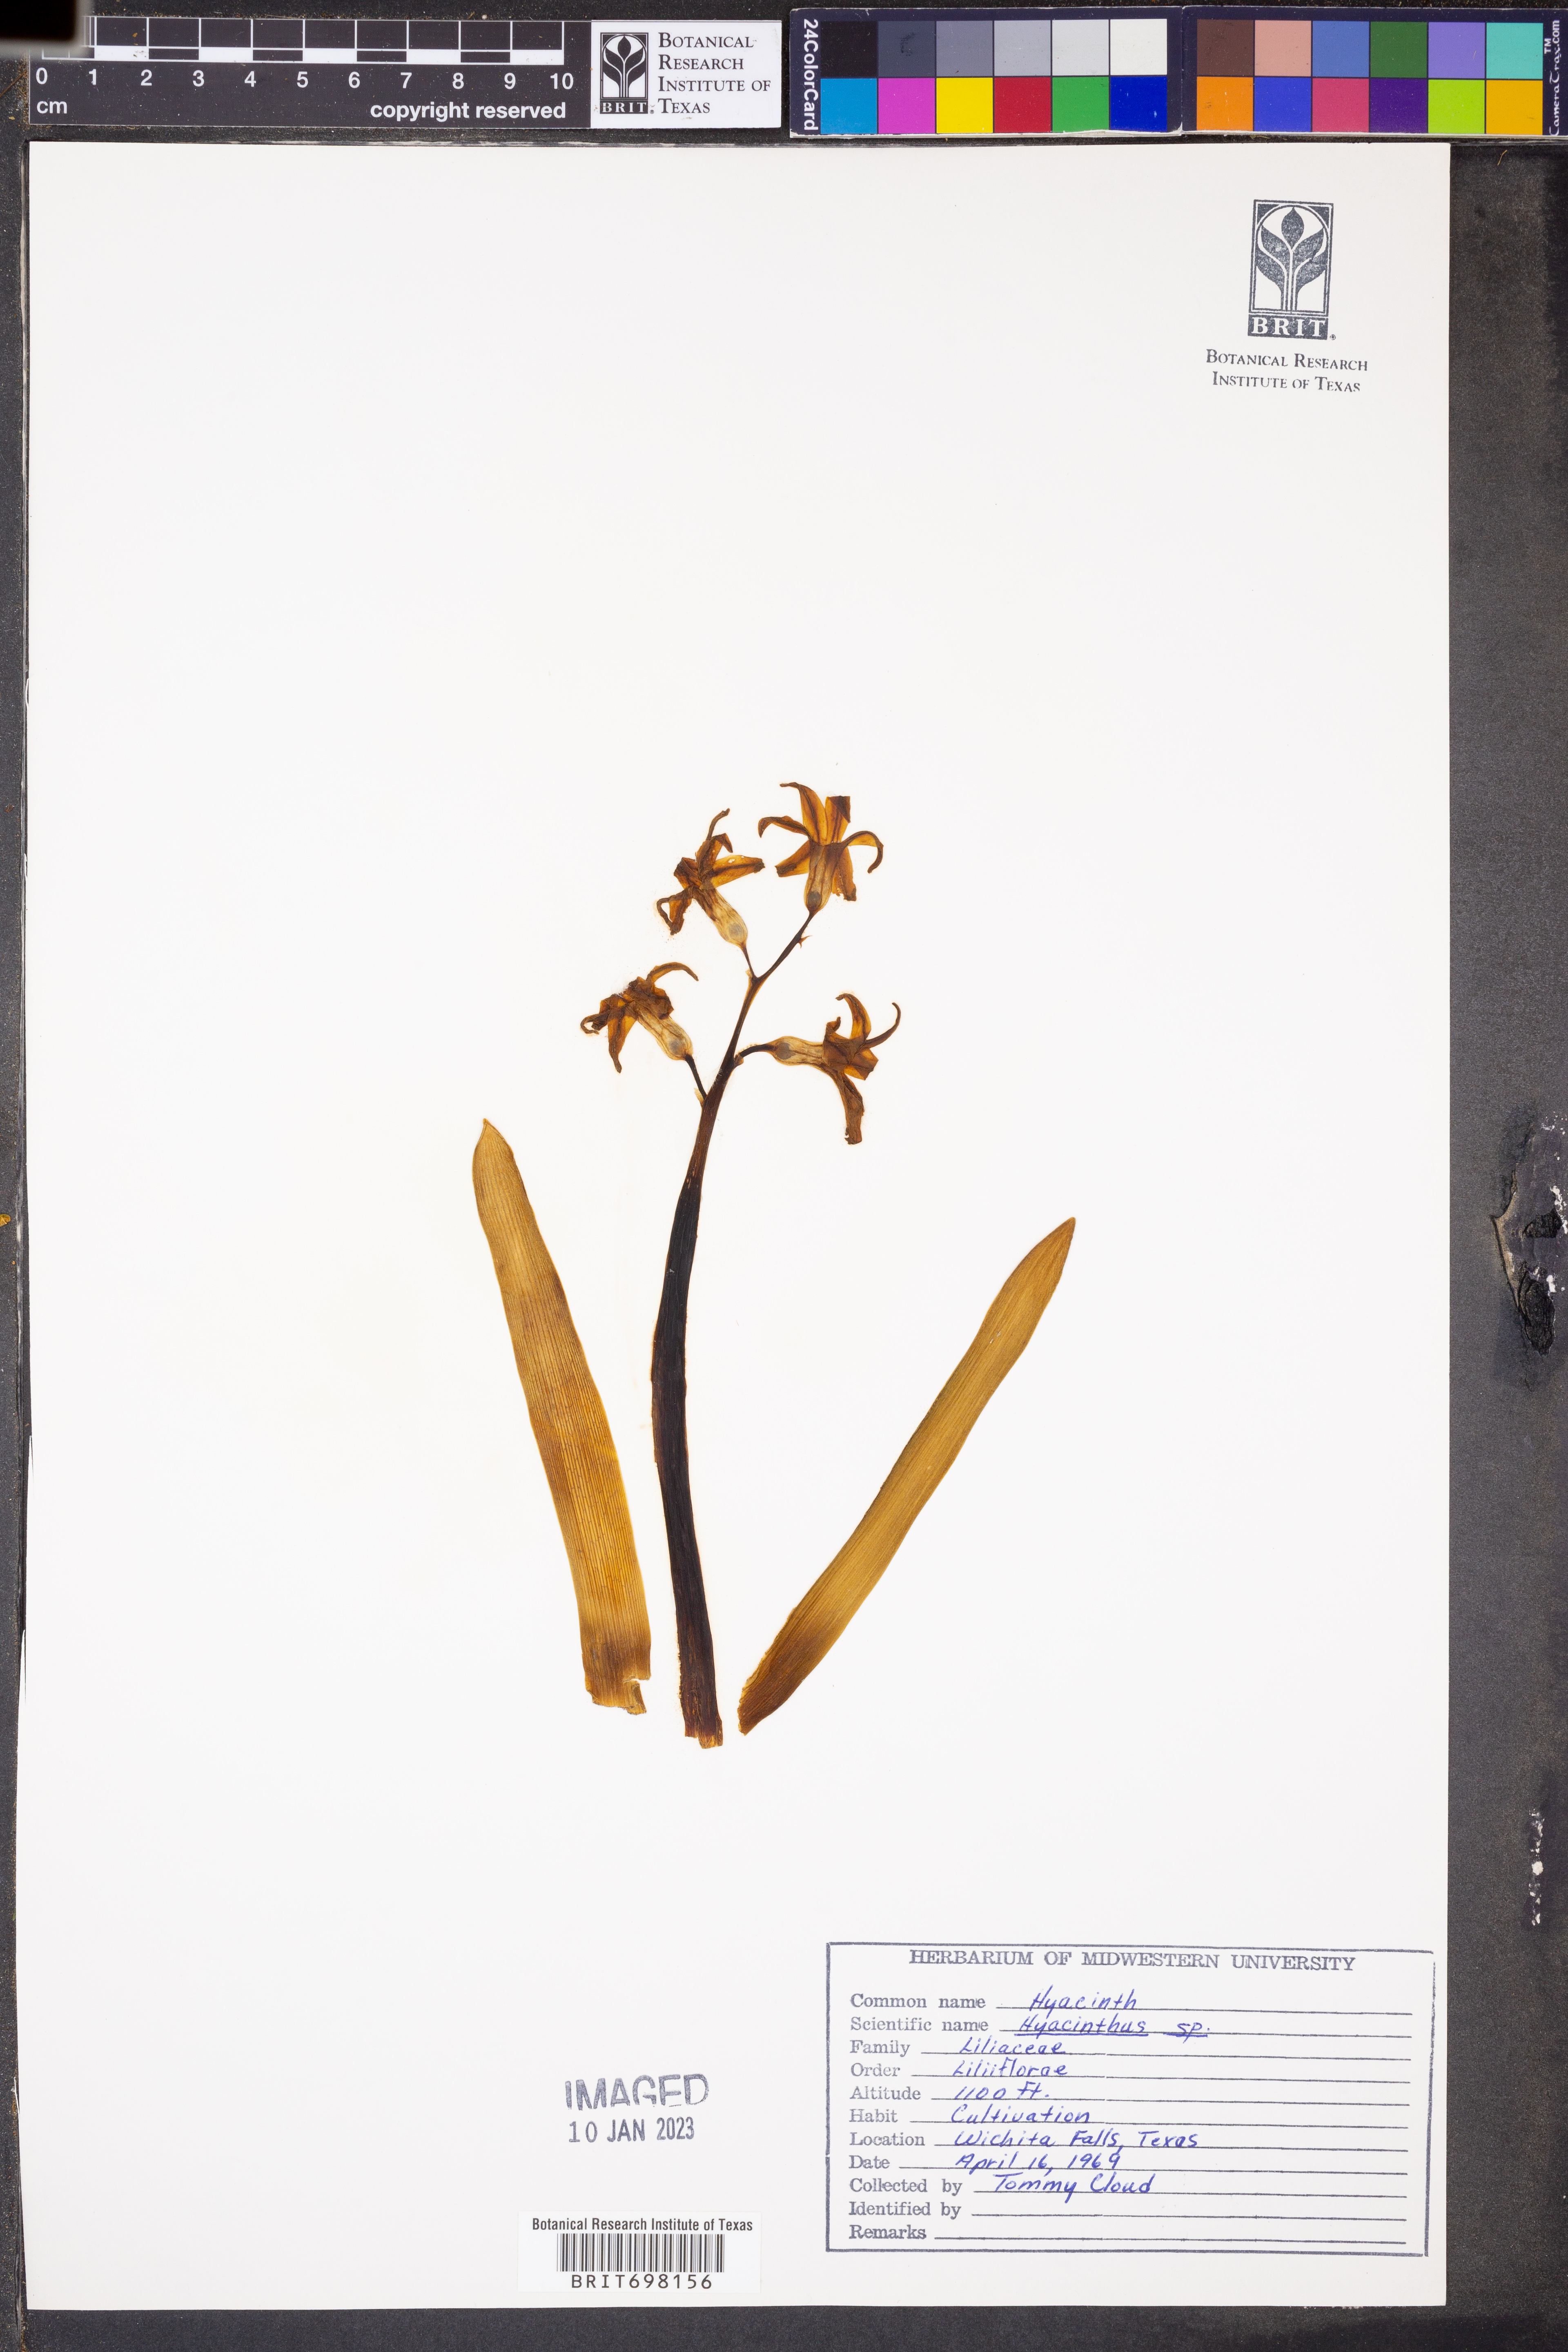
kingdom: Plantae
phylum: Tracheophyta
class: Liliopsida
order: Asparagales
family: Asparagaceae
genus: Hyacinthus
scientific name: Hyacinthus
